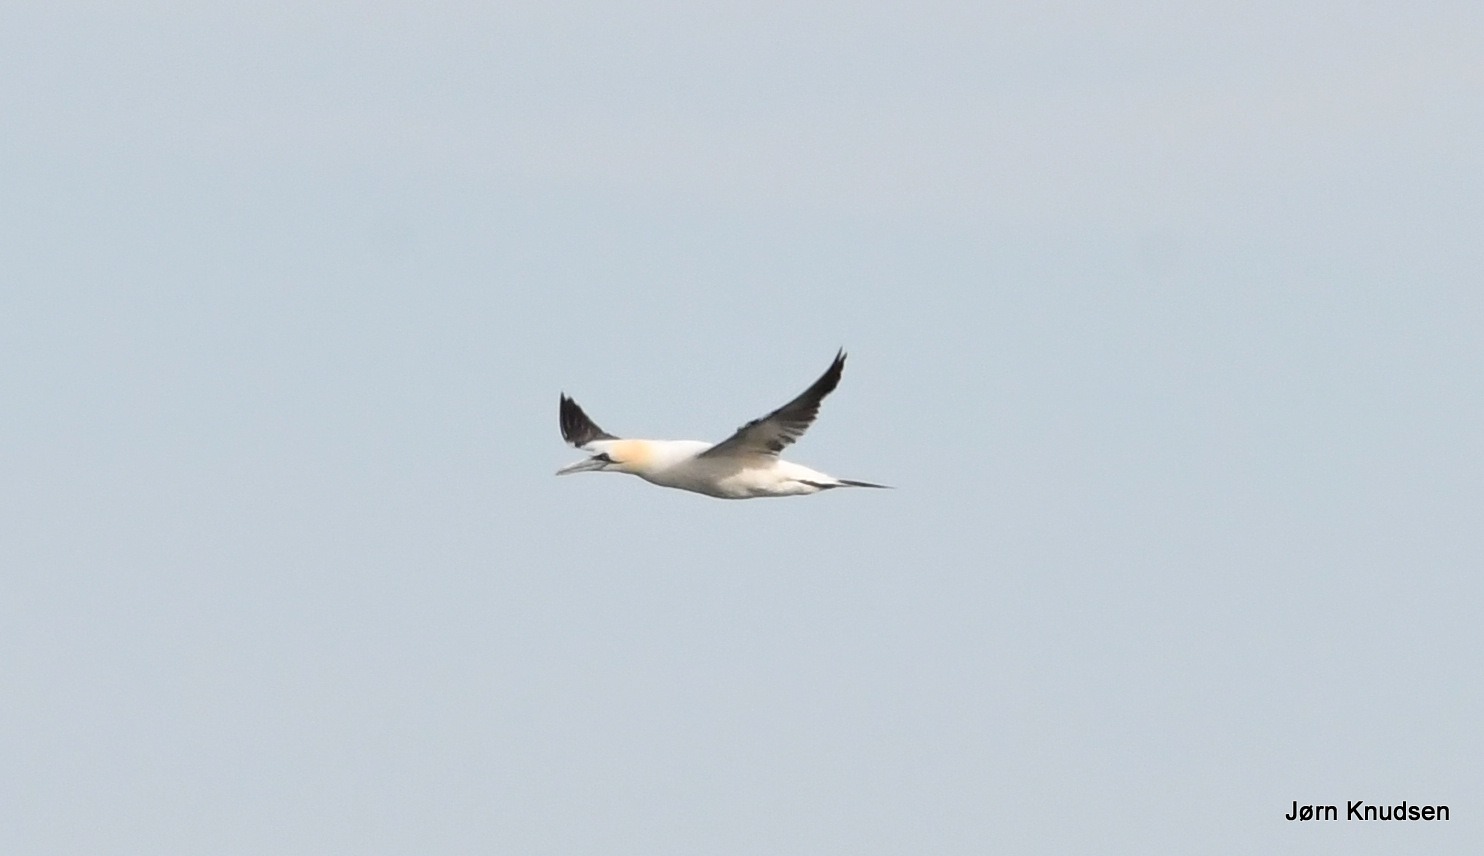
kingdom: Animalia
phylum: Chordata
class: Aves
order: Suliformes
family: Sulidae
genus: Morus
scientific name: Morus bassanus
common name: Sule
